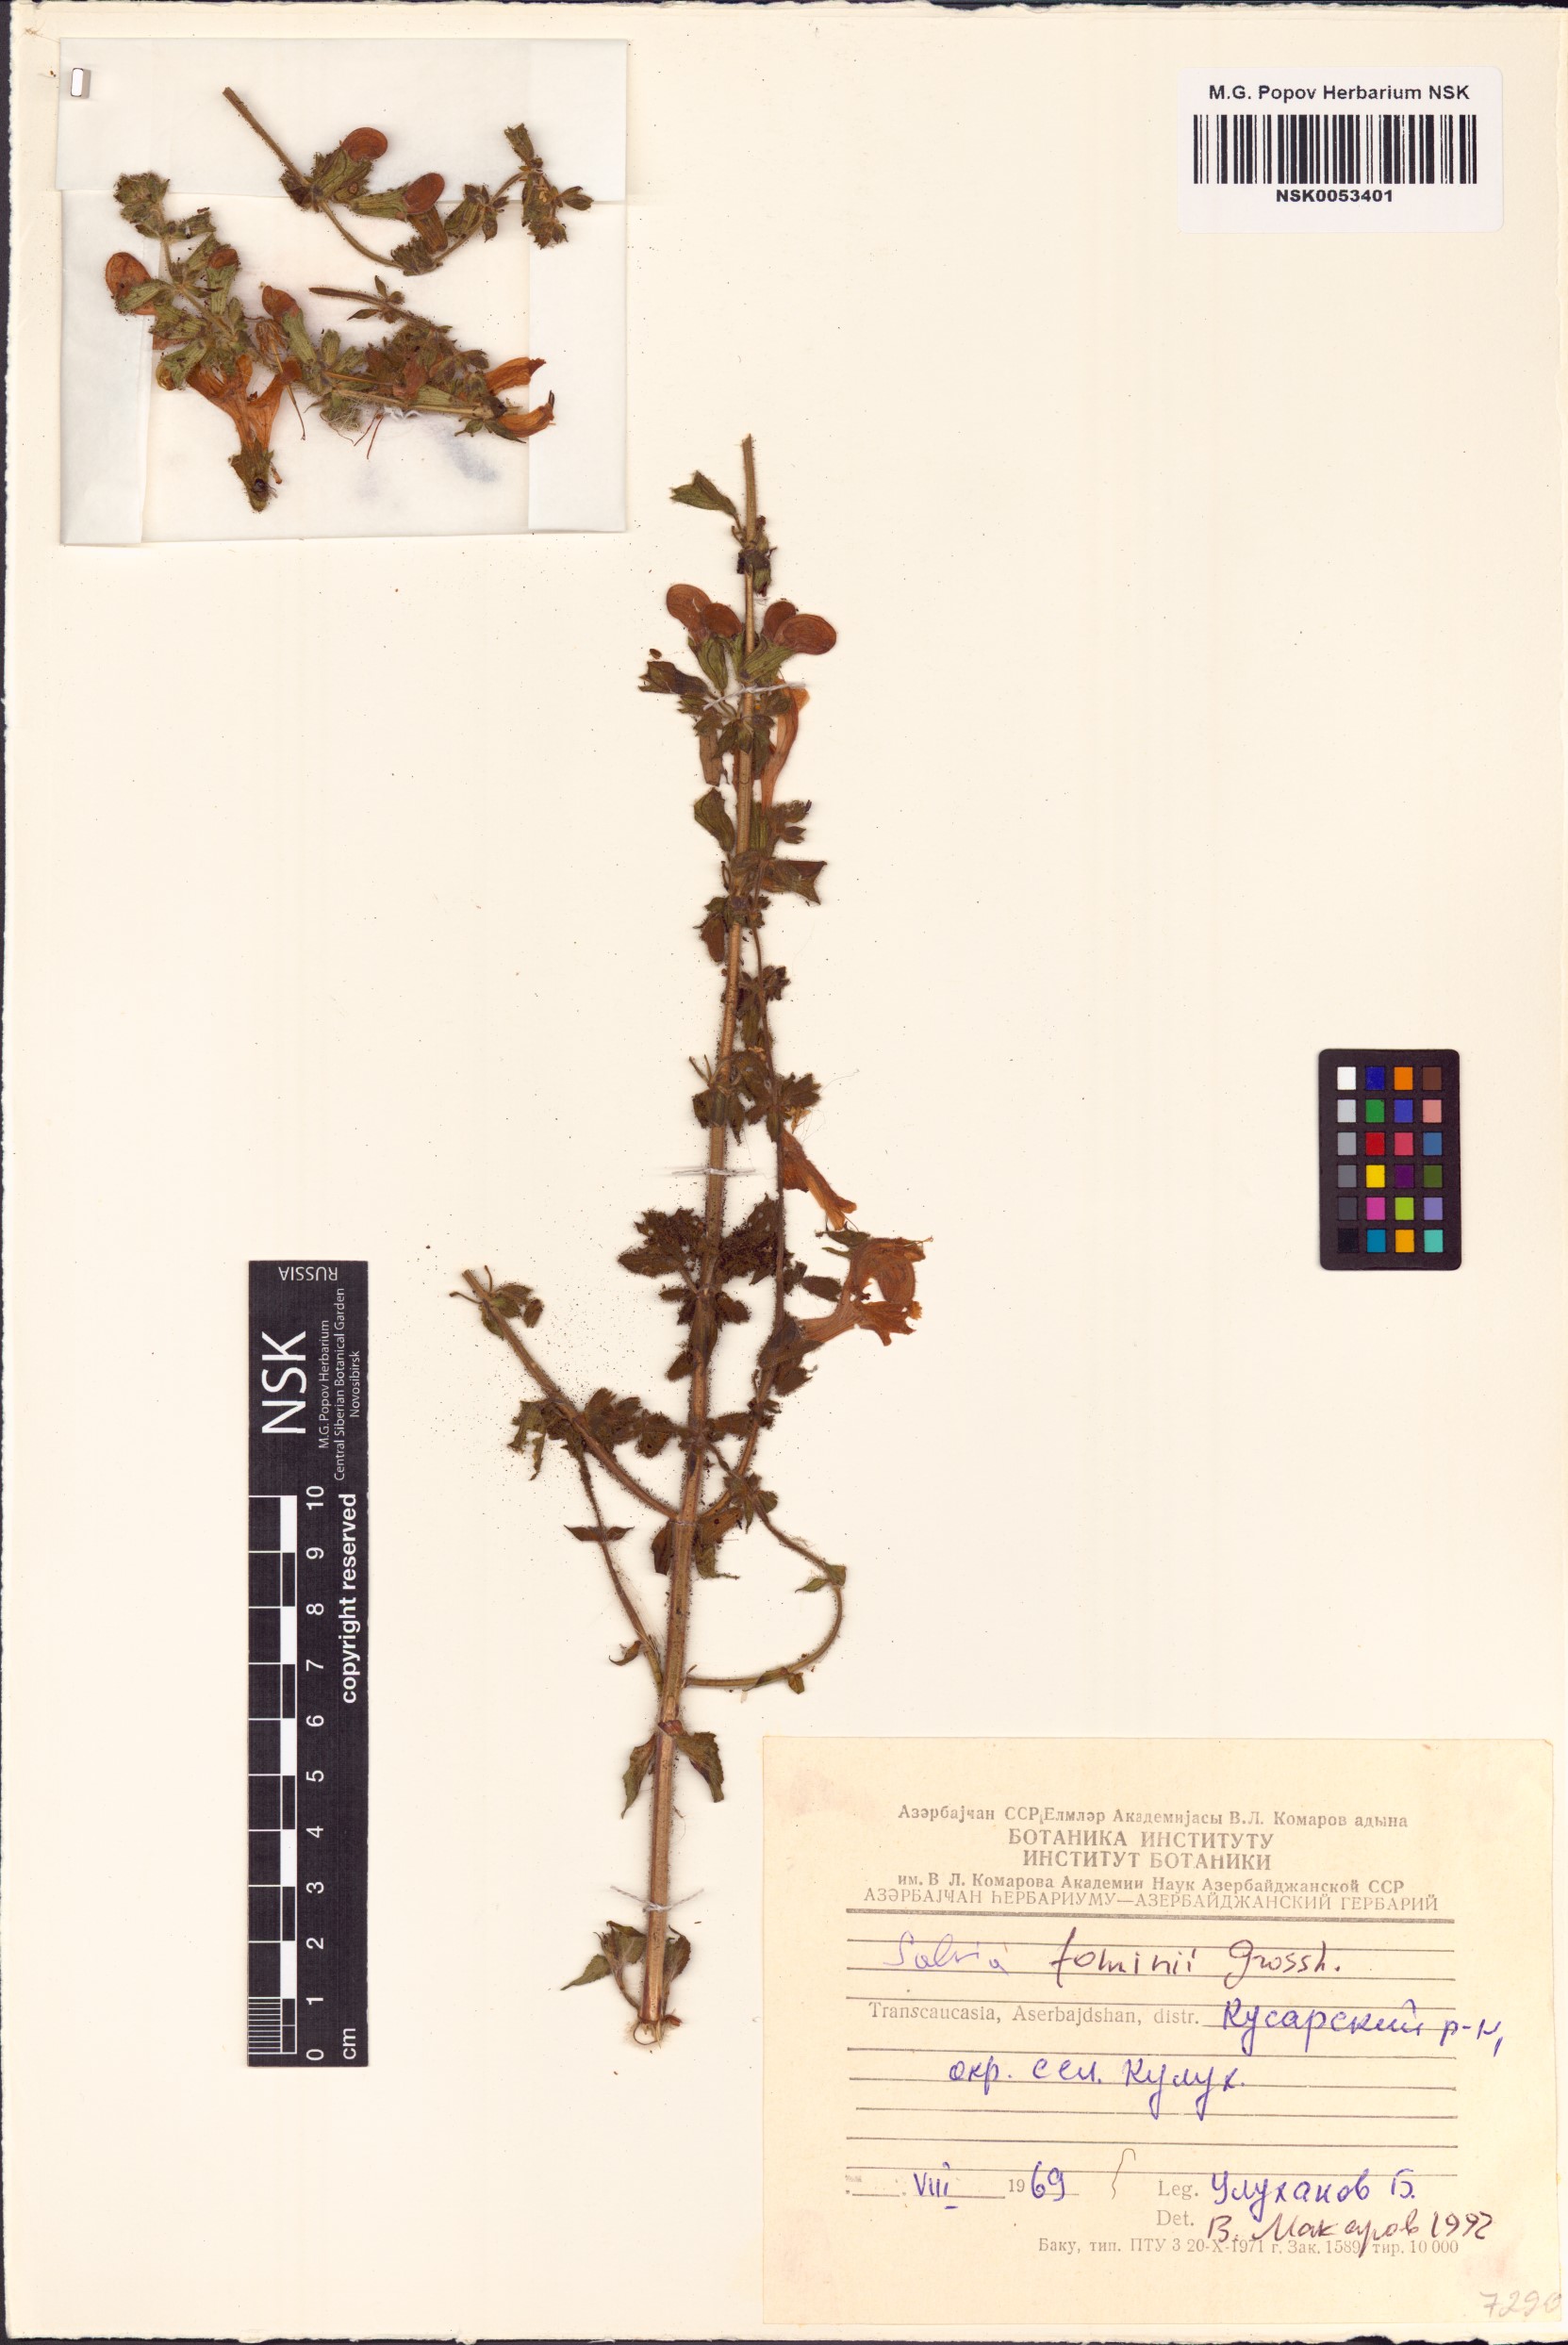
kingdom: Plantae
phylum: Tracheophyta
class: Magnoliopsida
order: Lamiales
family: Lamiaceae
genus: Salvia
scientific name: Salvia fominii
